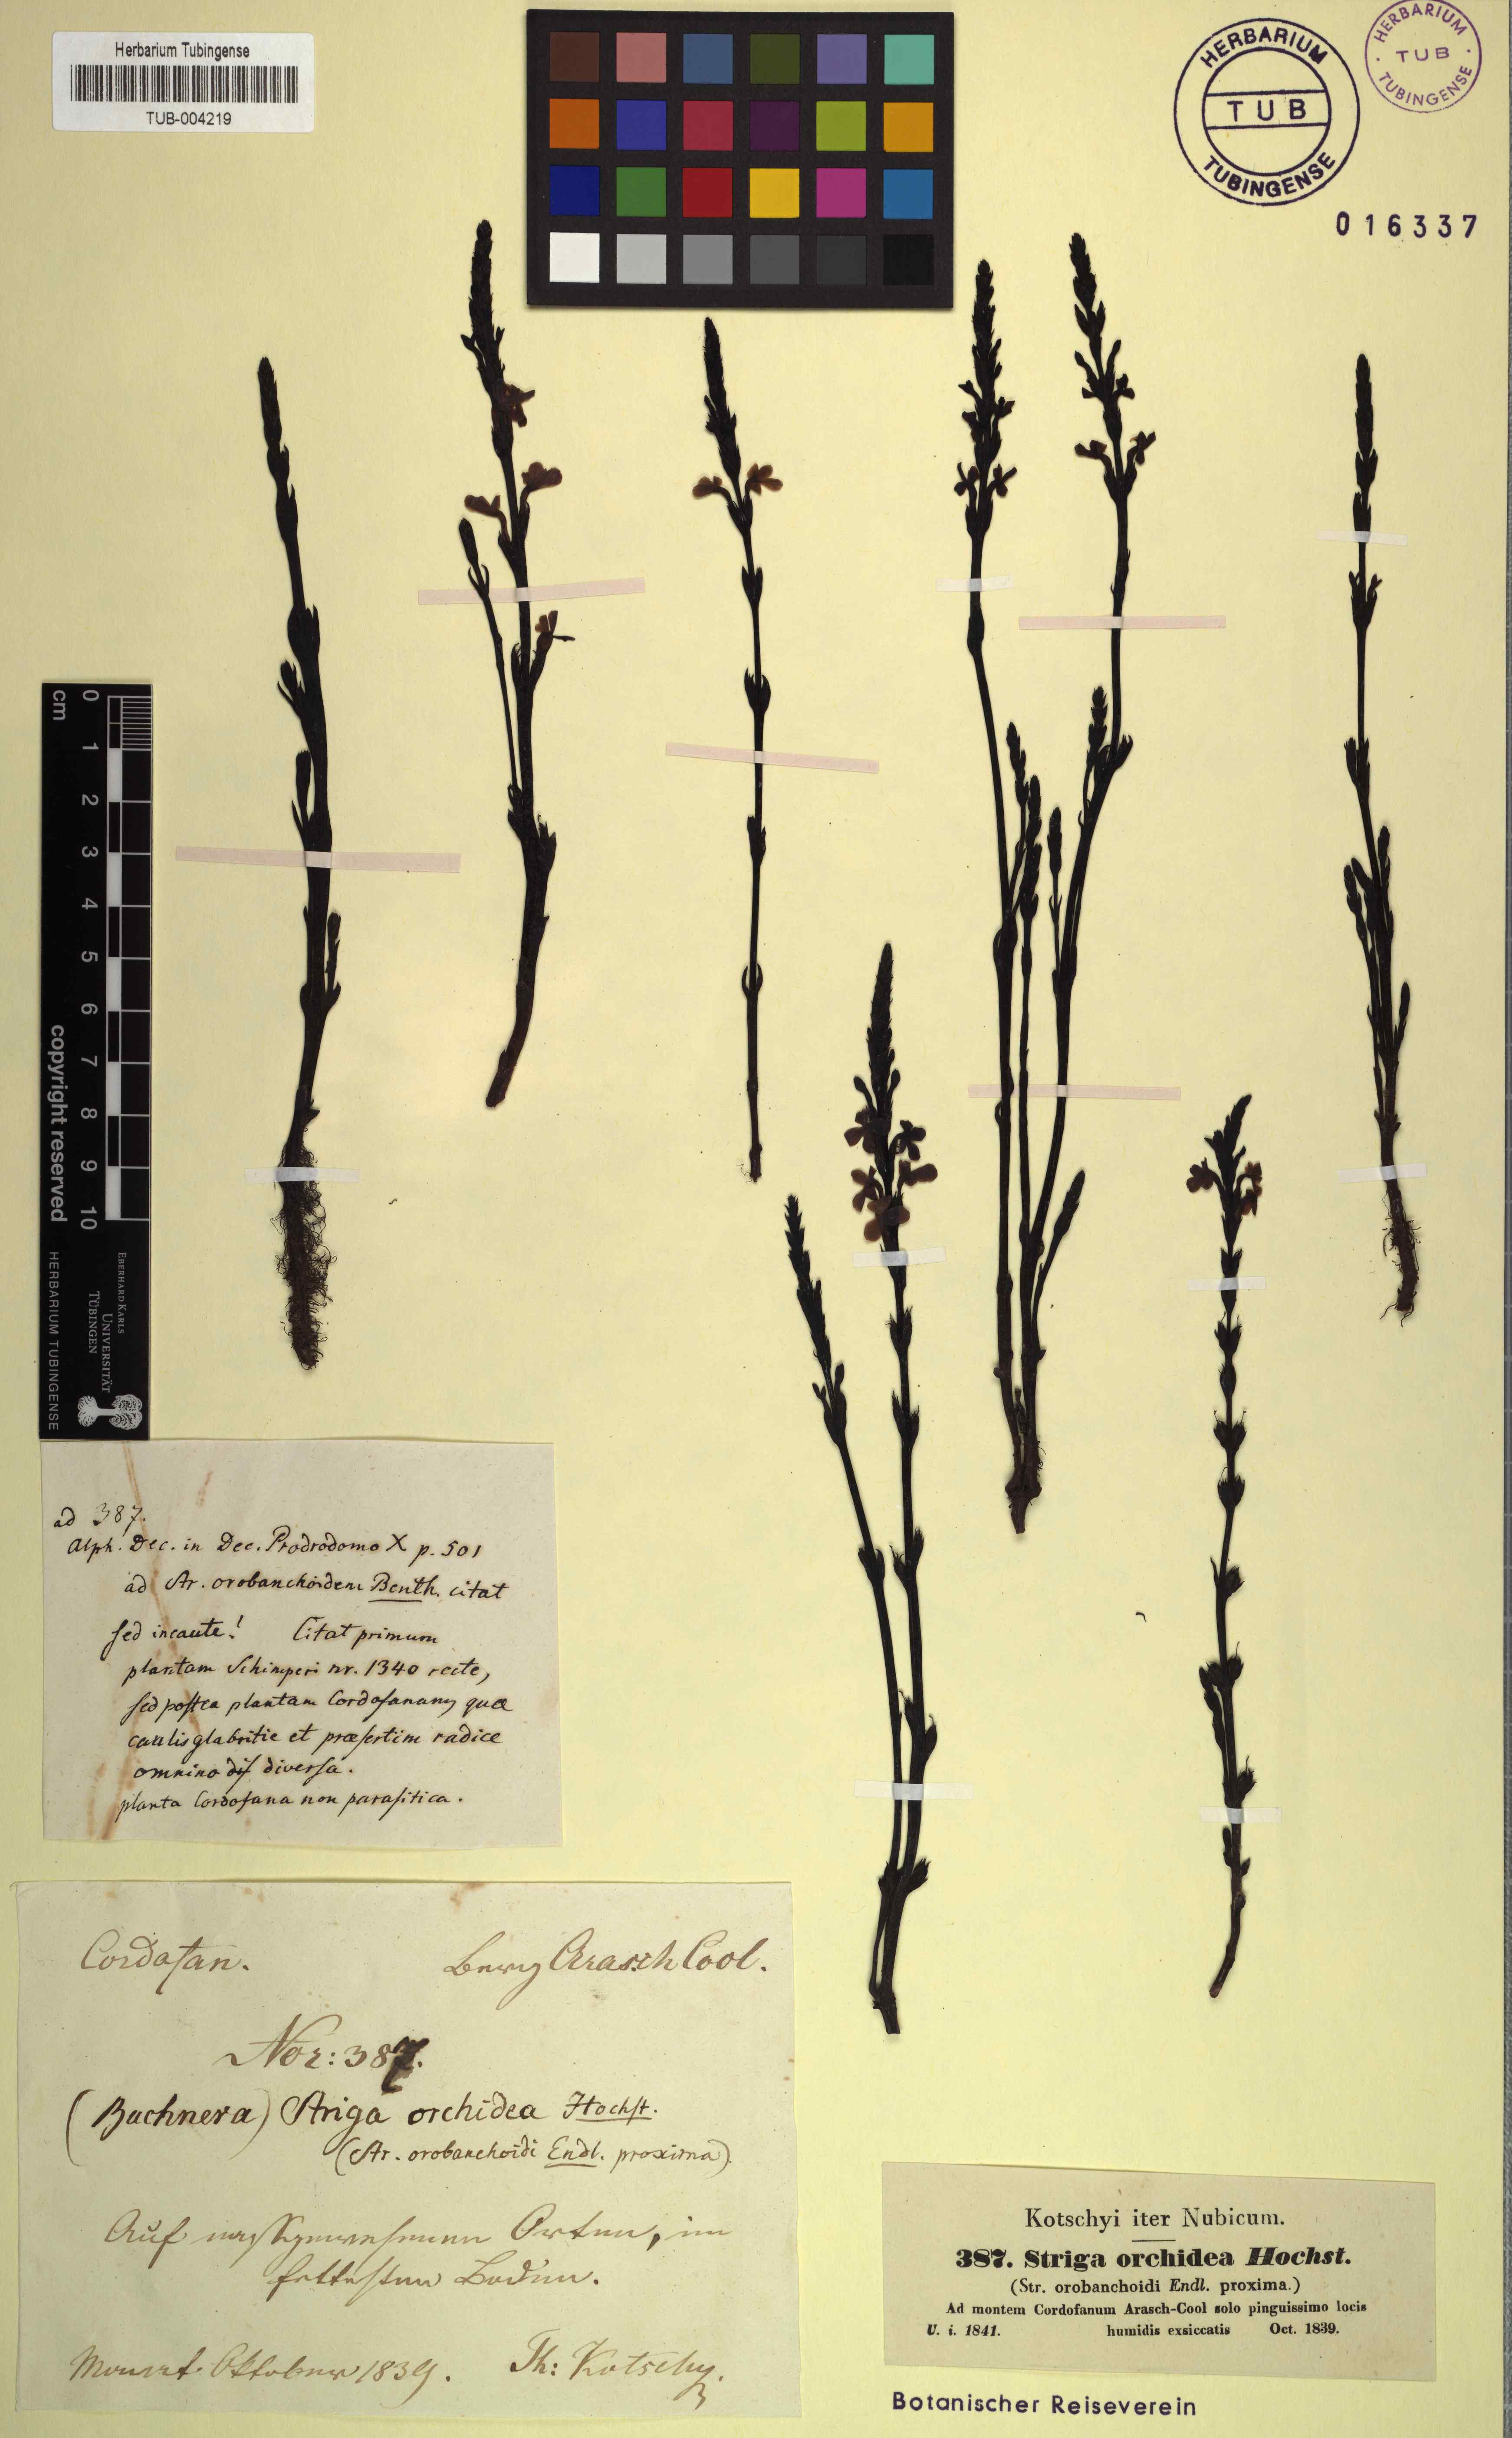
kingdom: Plantae
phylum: Tracheophyta
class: Magnoliopsida
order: Lamiales
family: Orobanchaceae
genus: Striga
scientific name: Striga barthlottii
